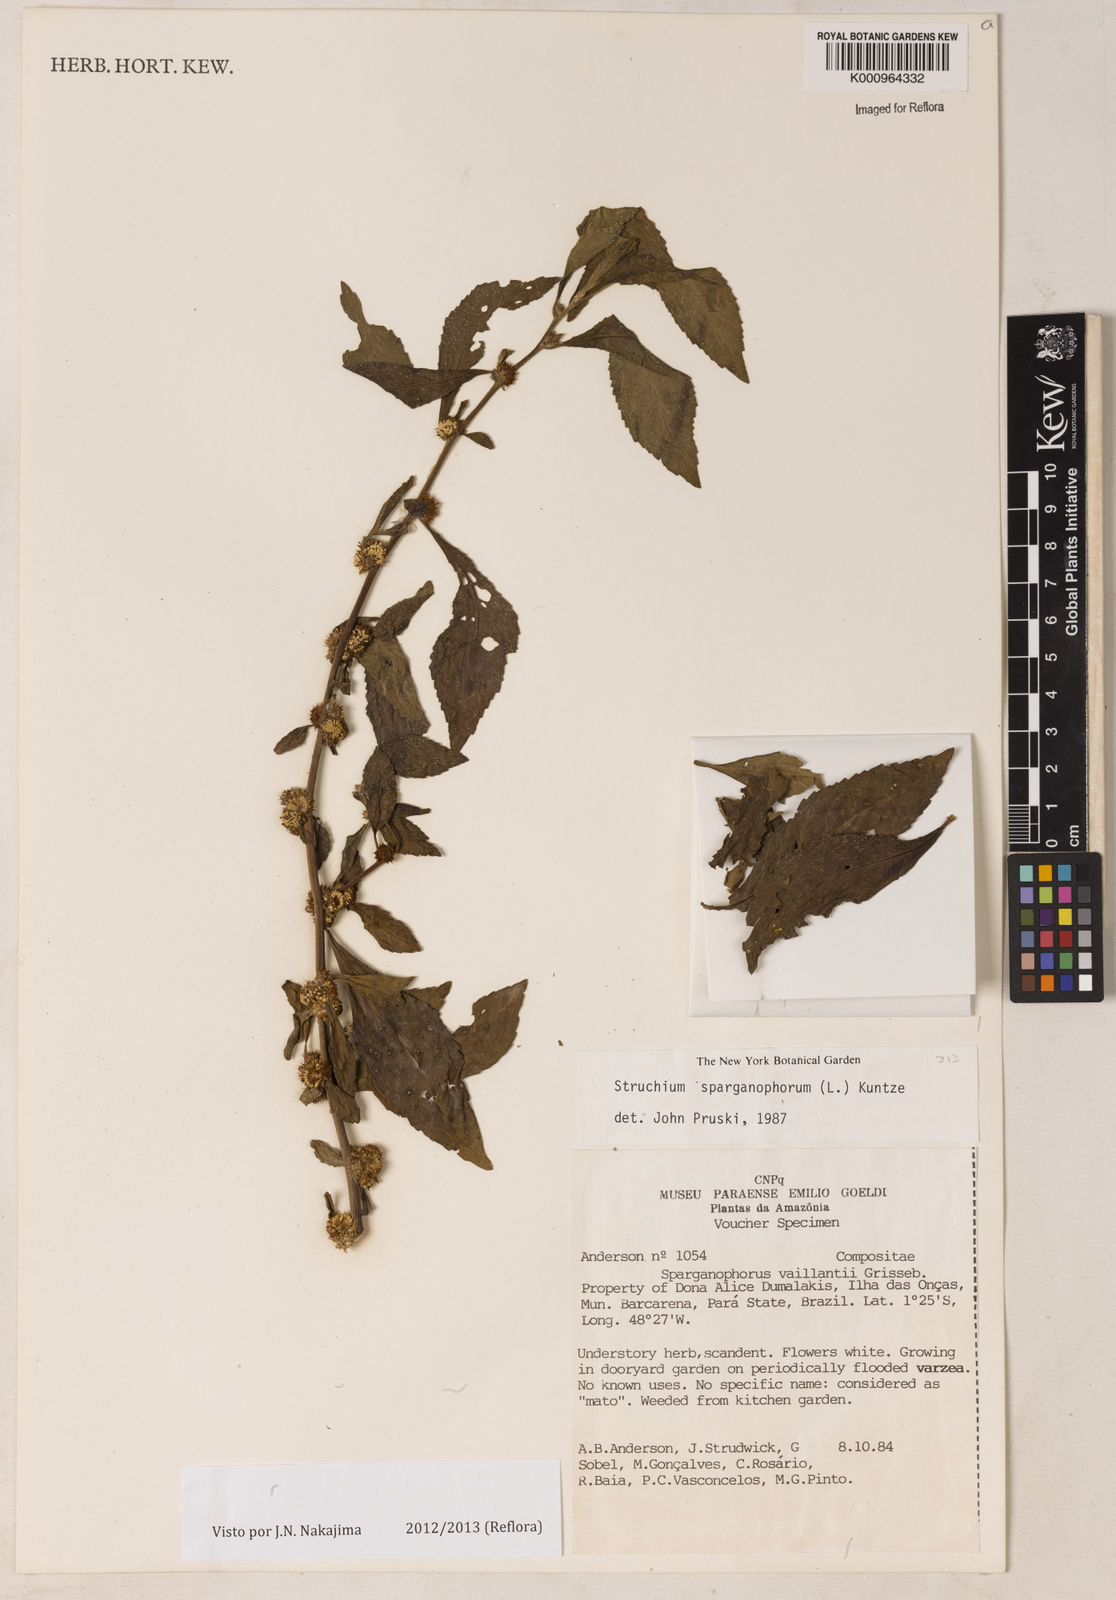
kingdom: Plantae
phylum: Tracheophyta
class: Magnoliopsida
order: Asterales
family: Asteraceae
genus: Struchium
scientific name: Struchium sparganophorum
